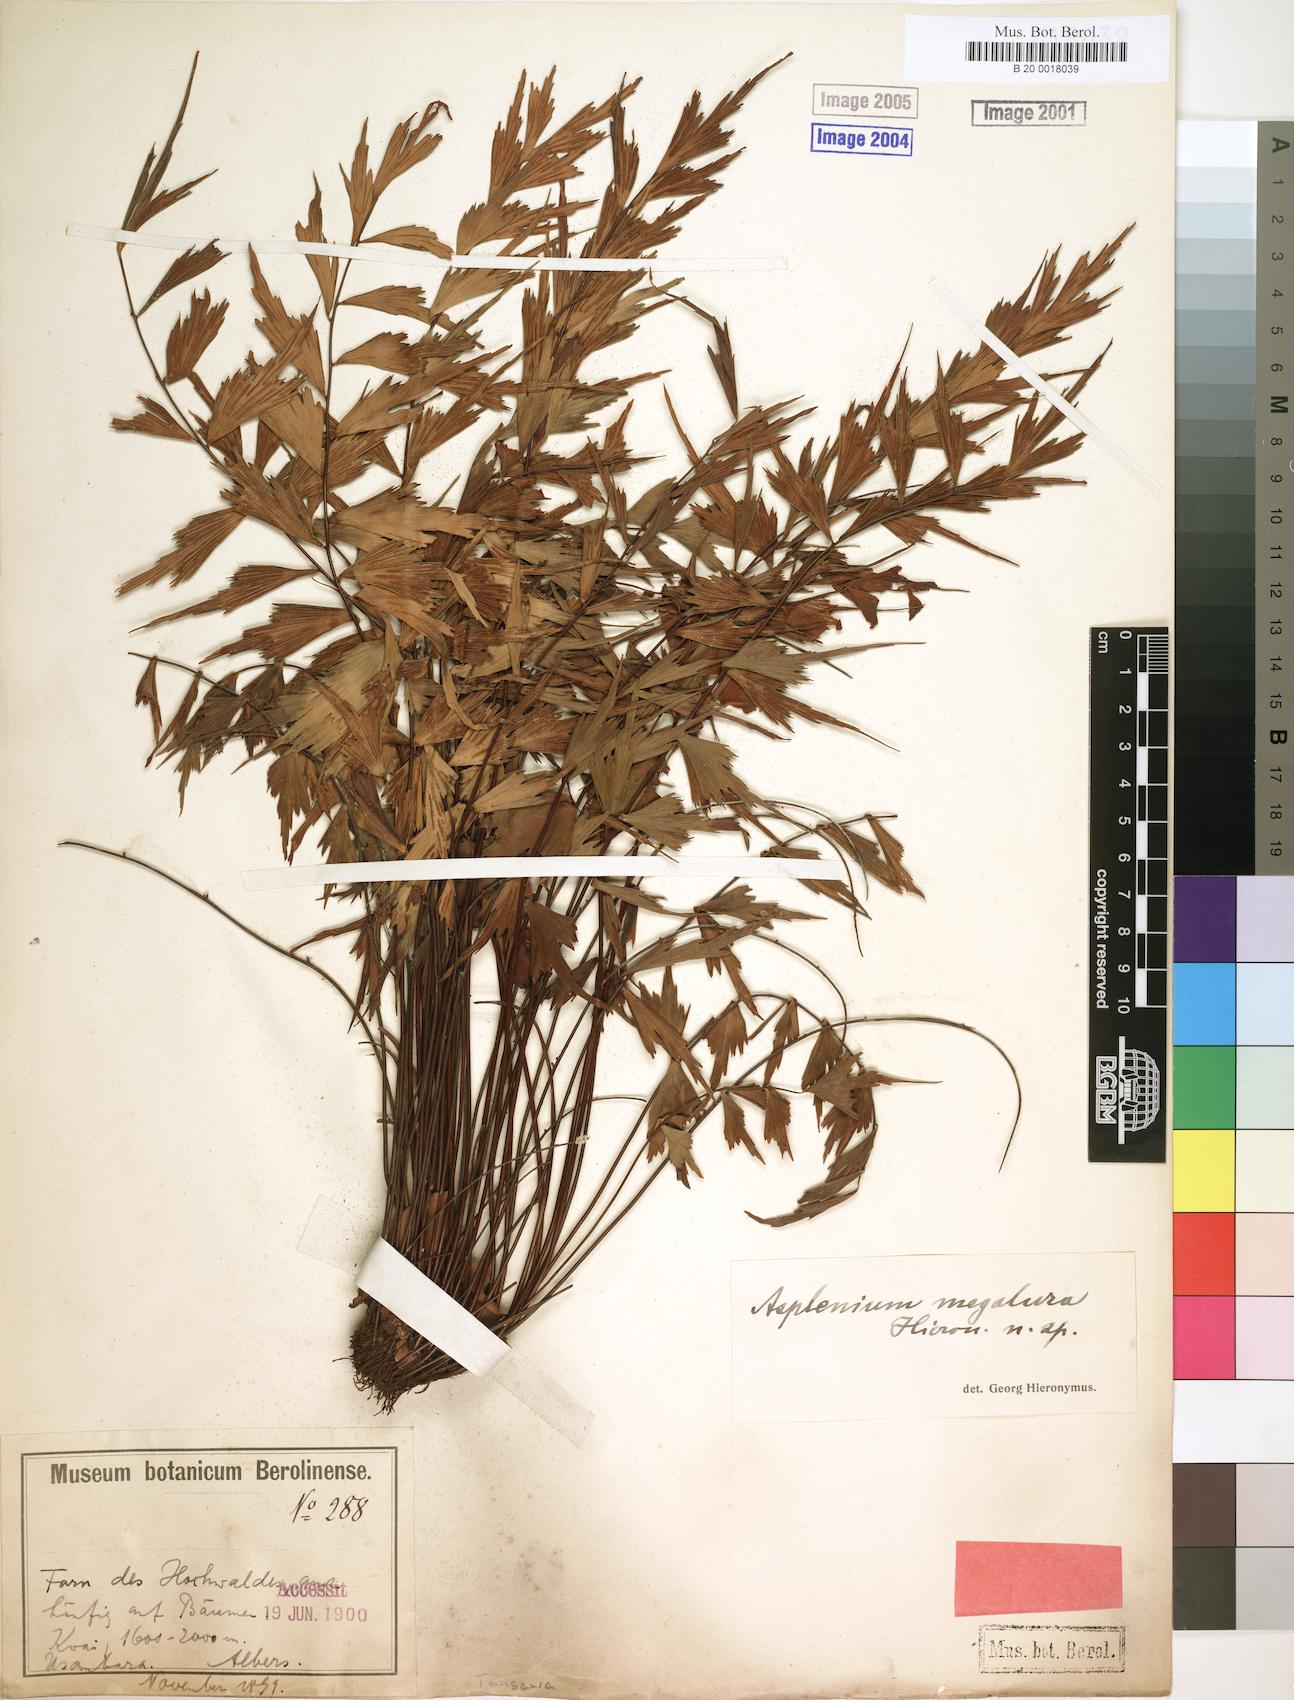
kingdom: Plantae
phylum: Tracheophyta
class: Polypodiopsida
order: Polypodiales
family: Aspleniaceae
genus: Asplenium
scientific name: Asplenium megalura
